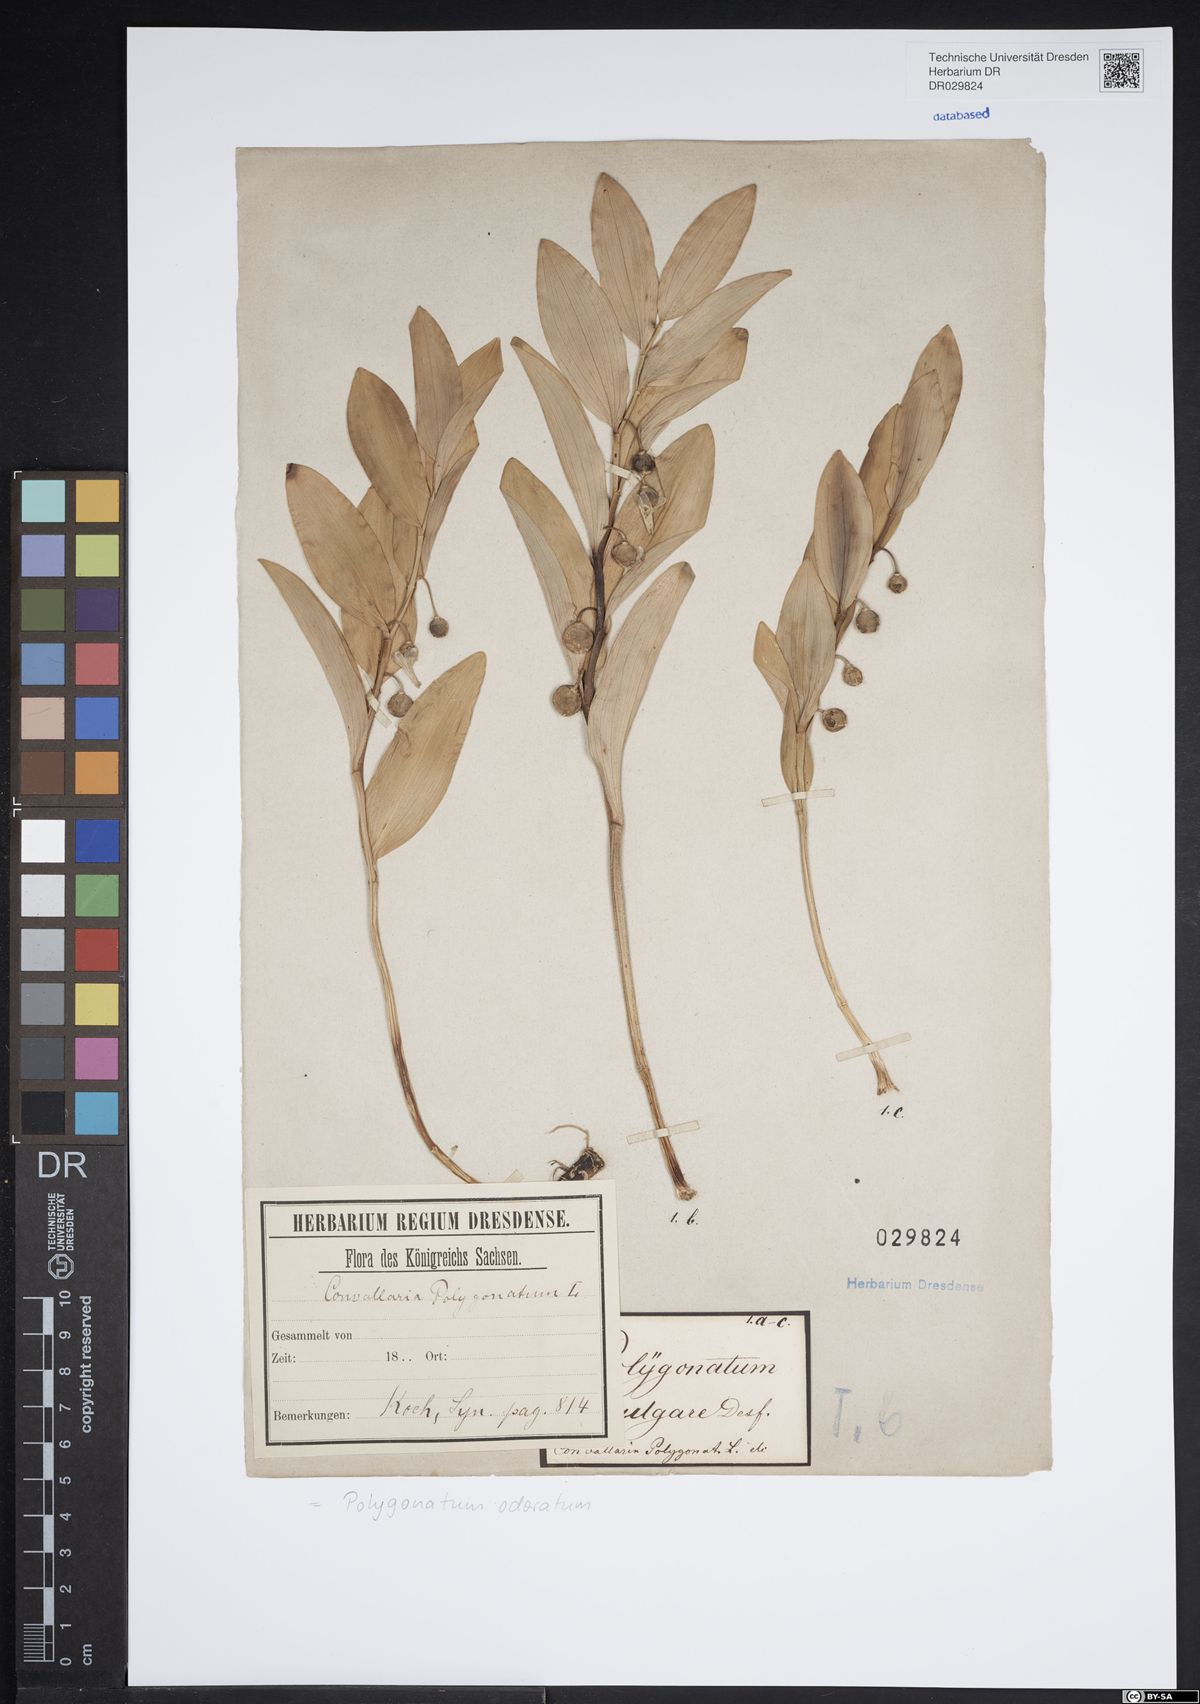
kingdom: Plantae
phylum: Tracheophyta
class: Liliopsida
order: Asparagales
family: Asparagaceae
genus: Polygonatum
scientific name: Polygonatum odoratum
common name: Angular solomon's-seal
